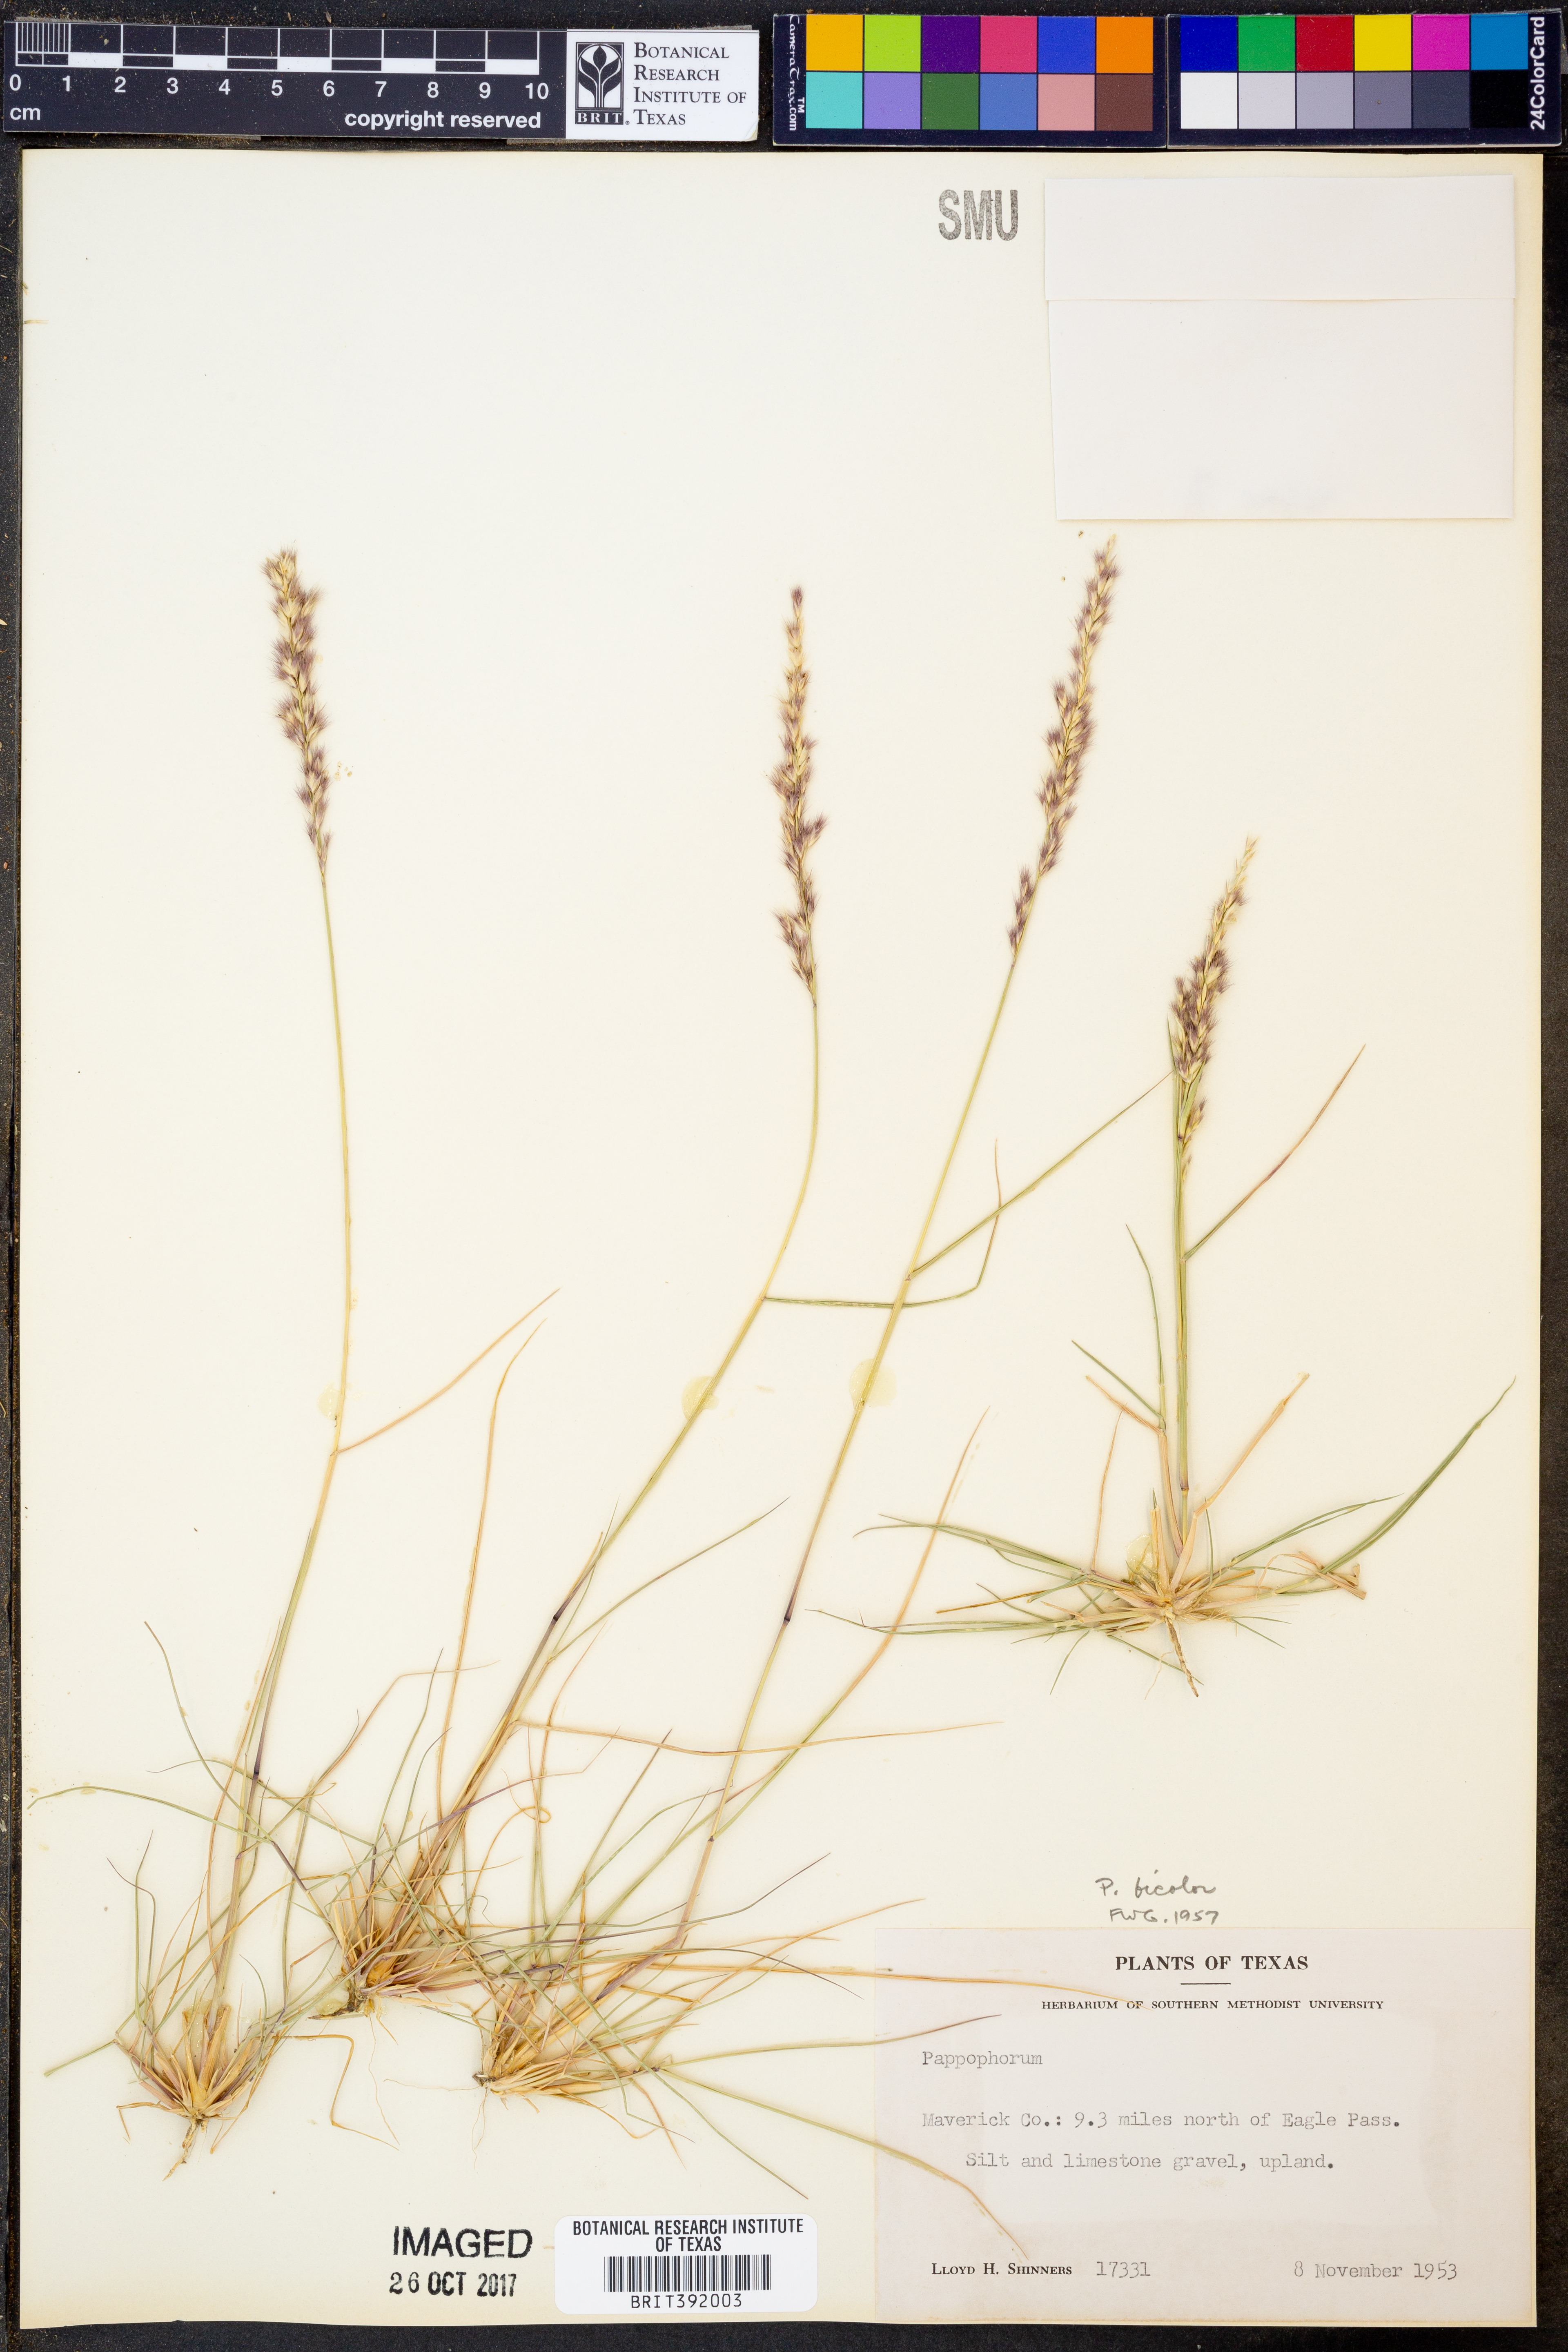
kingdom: Plantae
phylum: Tracheophyta
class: Liliopsida
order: Poales
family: Poaceae
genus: Pappophorum
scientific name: Pappophorum bicolor
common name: Pink pappus grass
